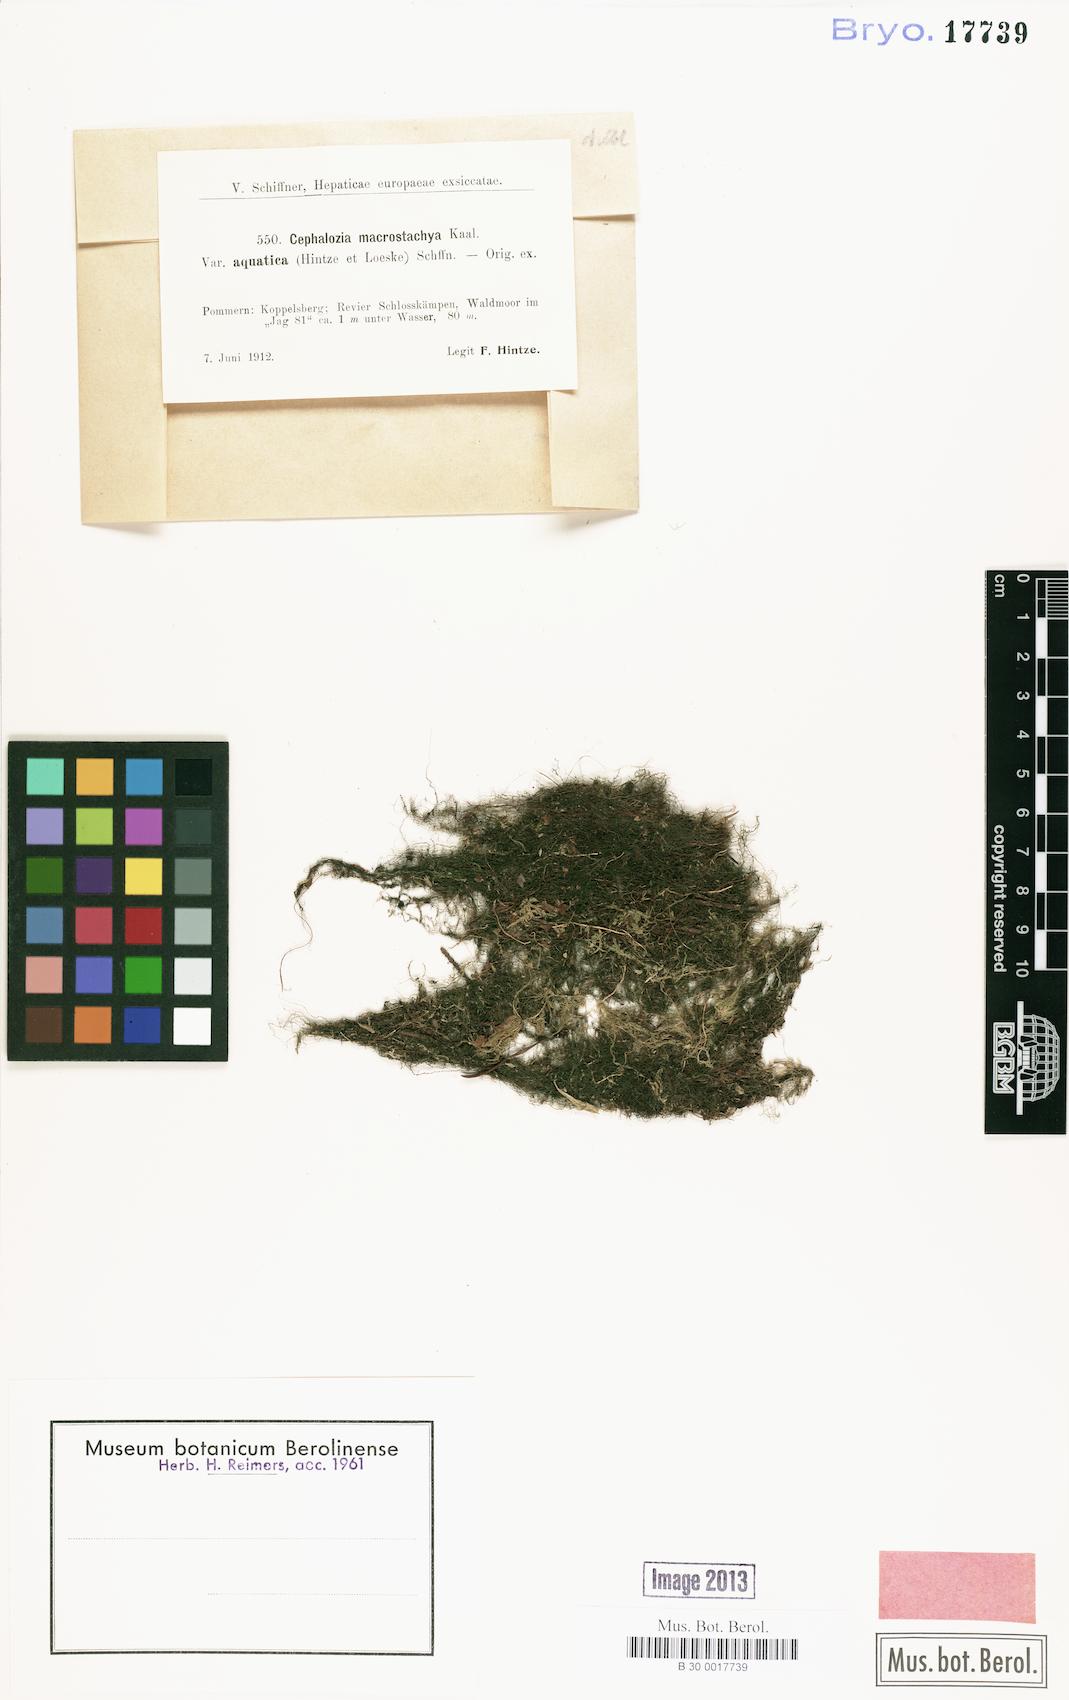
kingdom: Plantae
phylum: Marchantiophyta
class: Jungermanniopsida
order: Jungermanniales
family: Cephaloziaceae
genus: Fuscocephaloziopsis
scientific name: Fuscocephaloziopsis macrostachya
